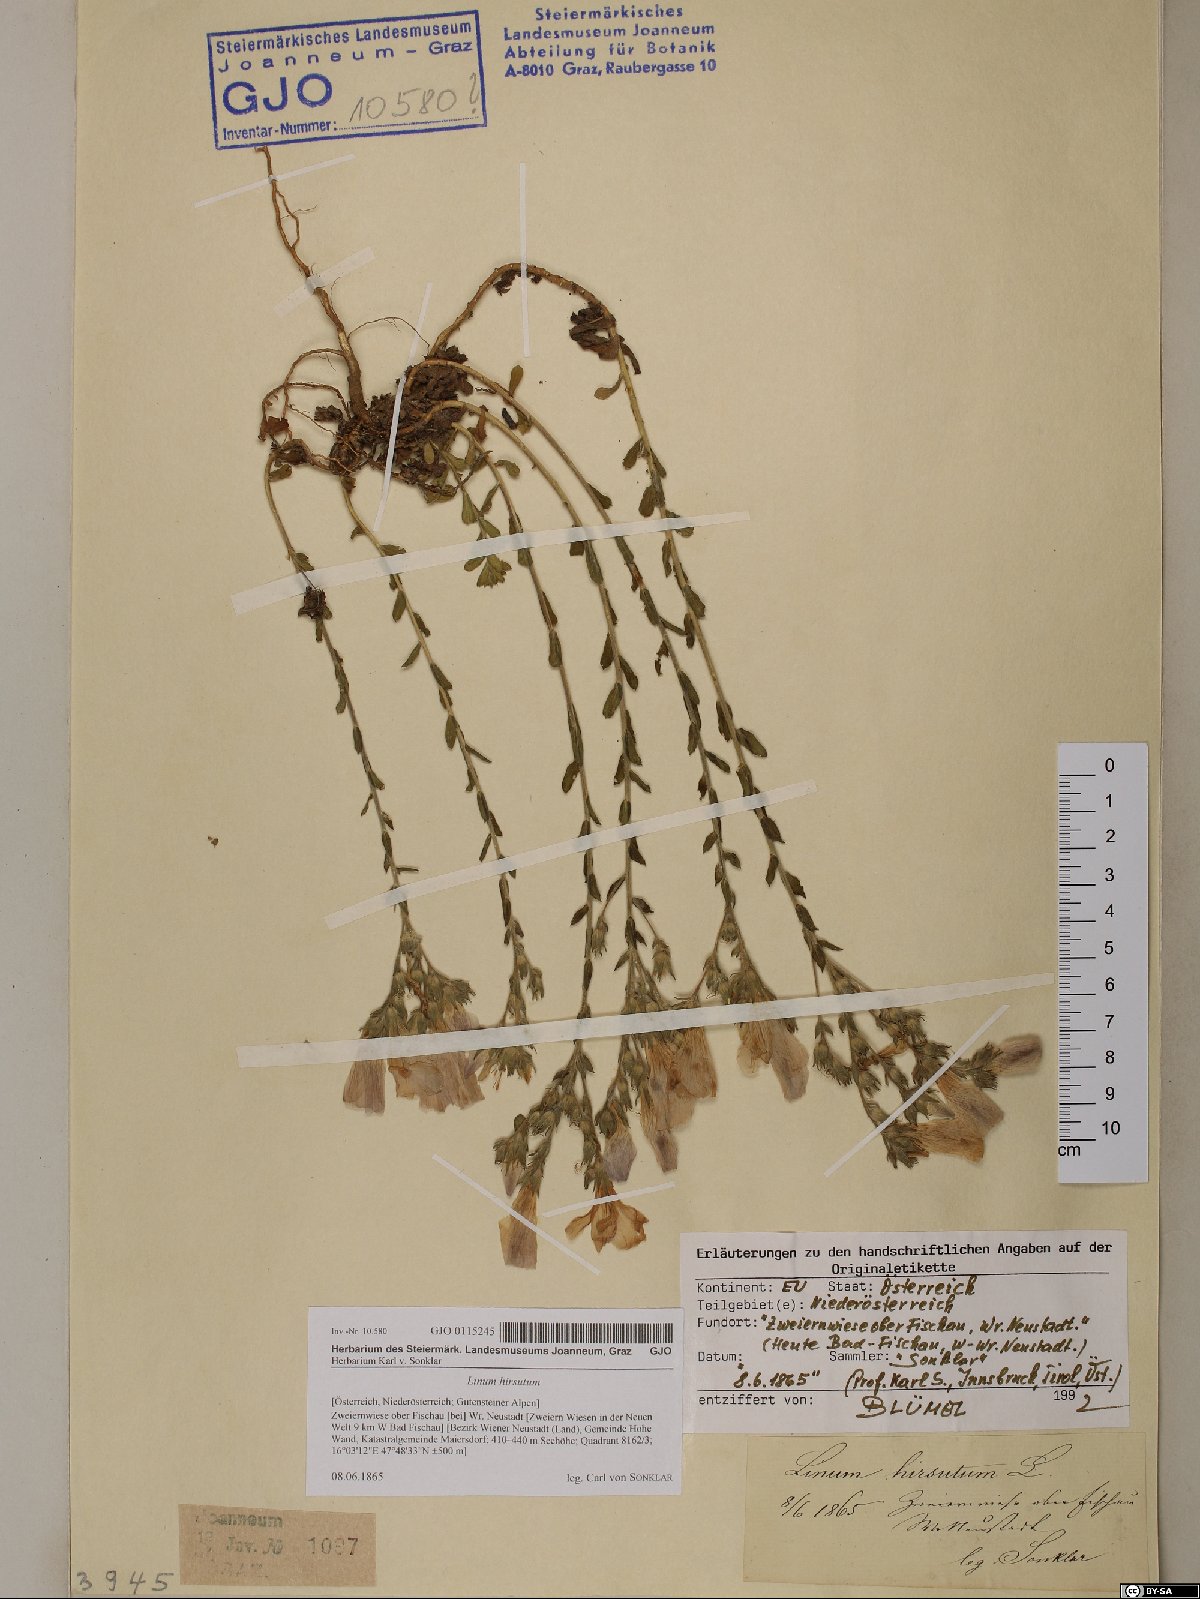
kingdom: Plantae
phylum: Tracheophyta
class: Magnoliopsida
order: Malpighiales
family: Linaceae
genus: Linum
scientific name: Linum hirsutum
